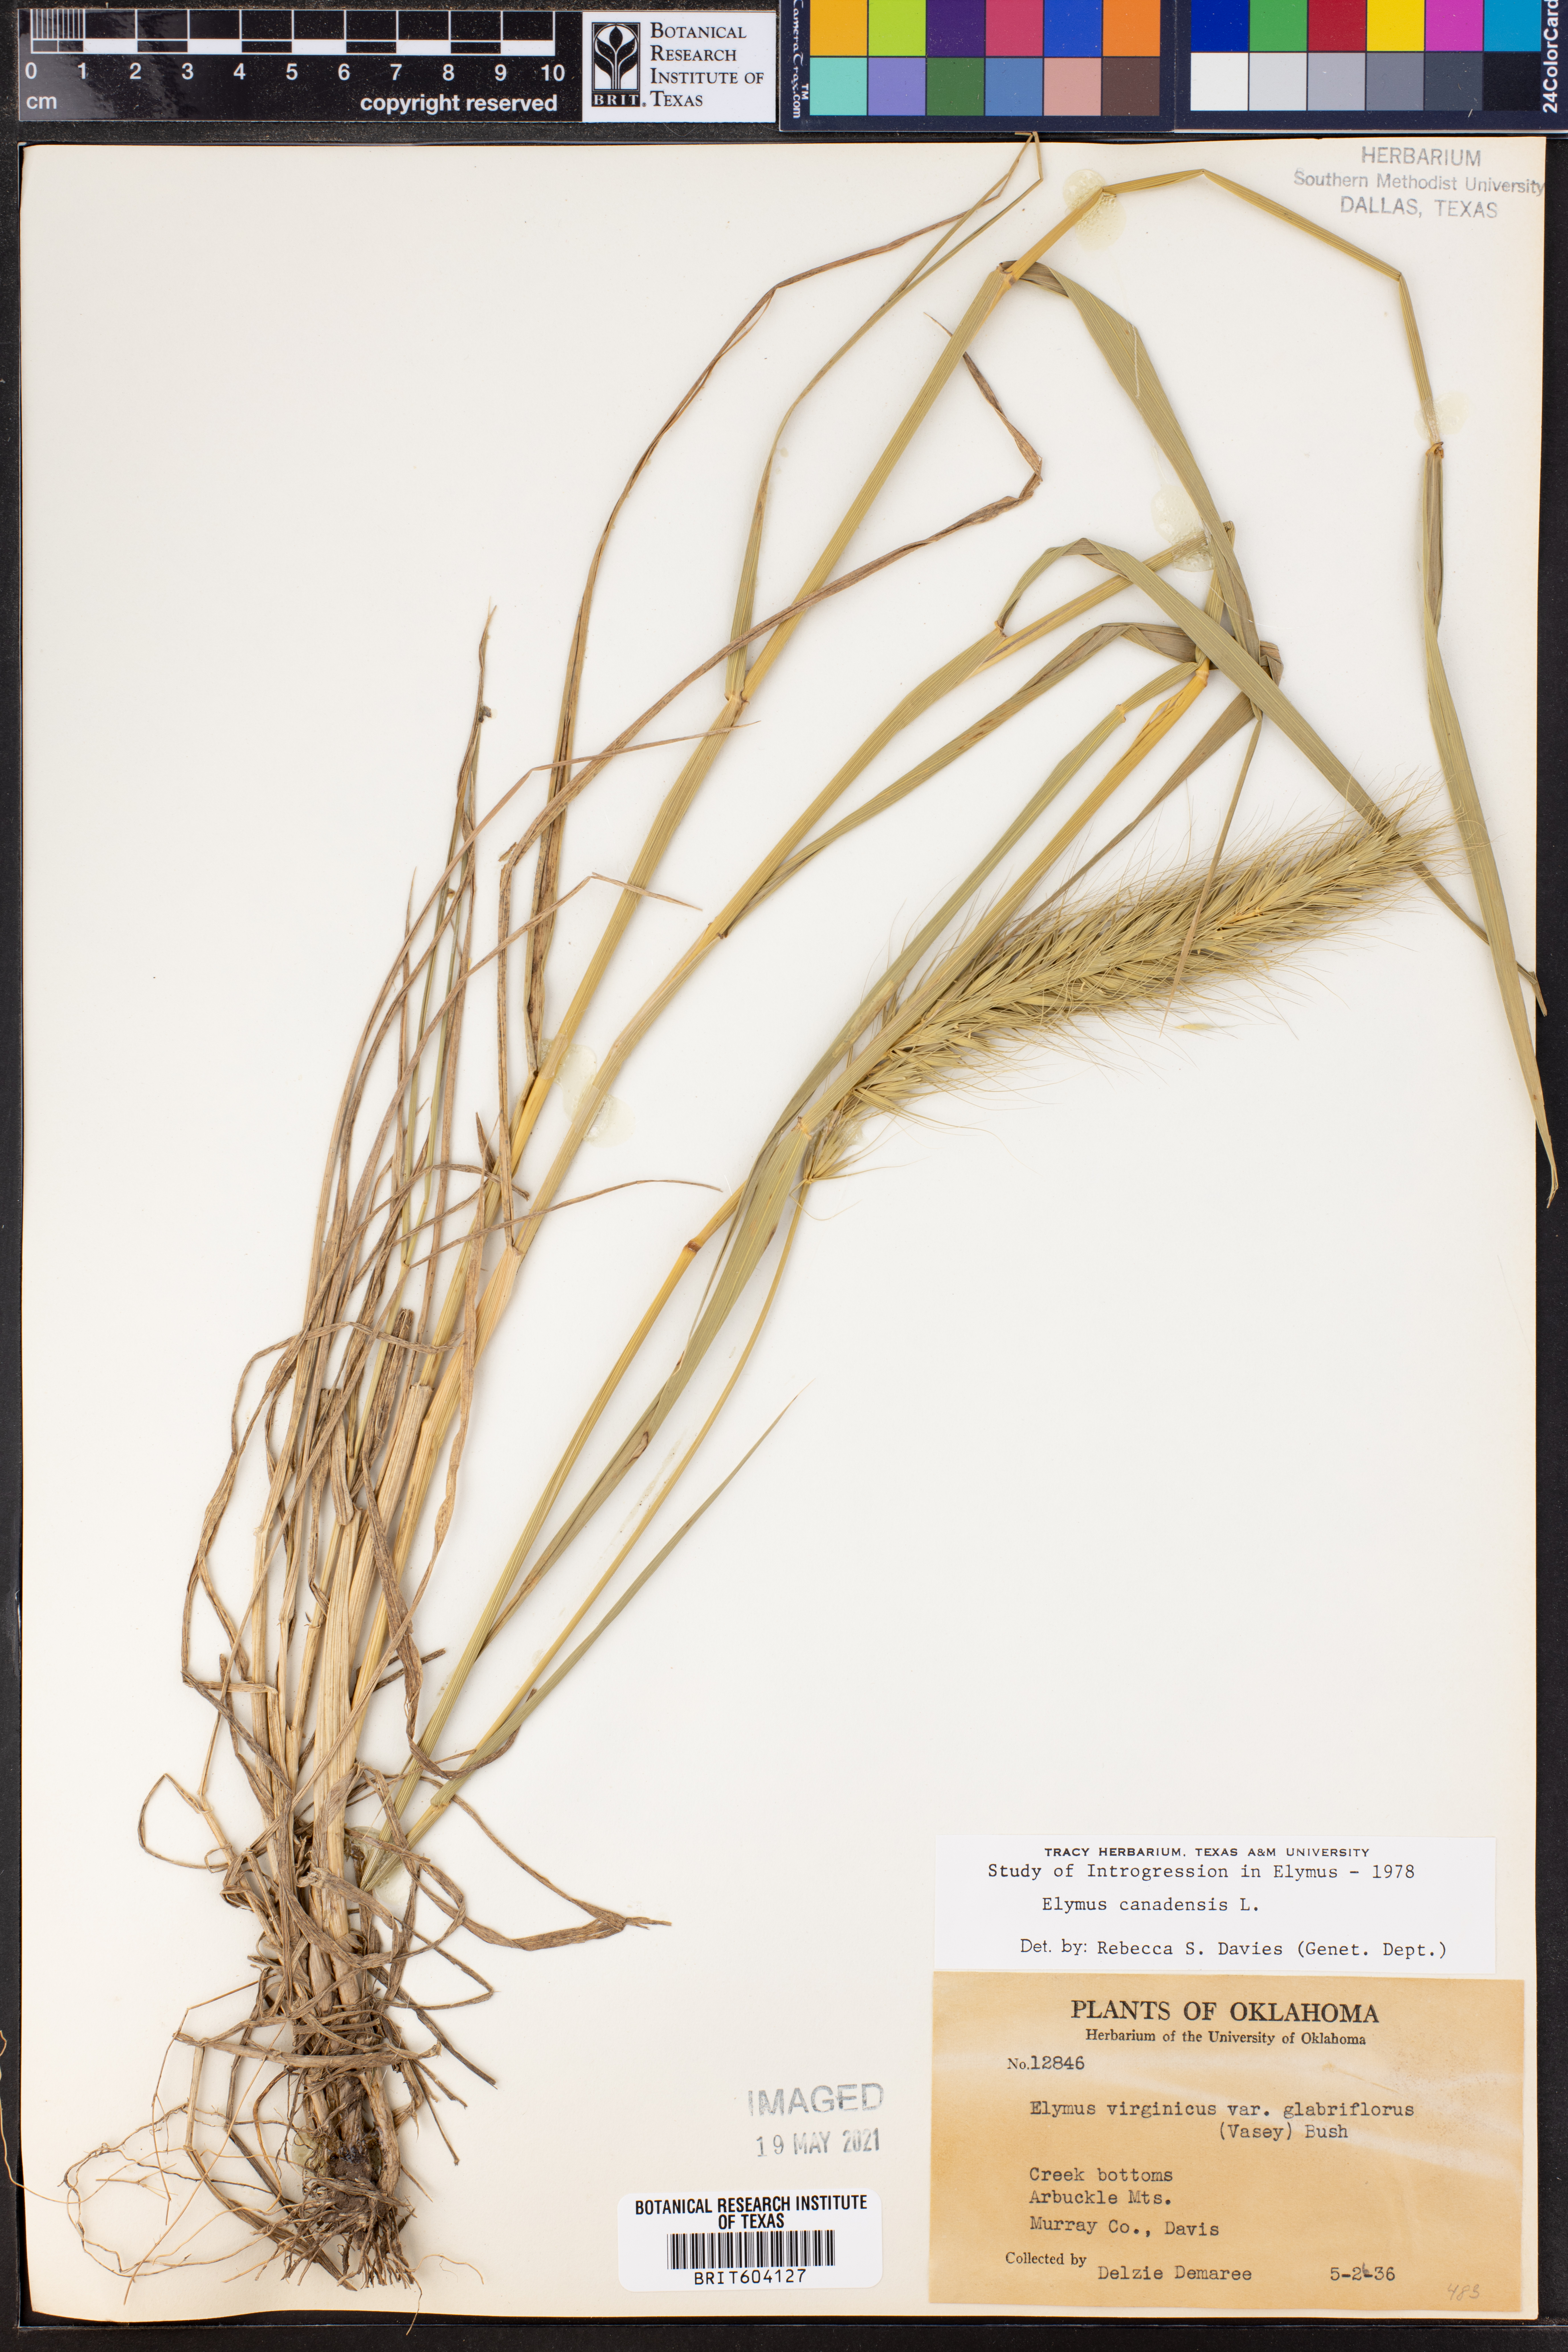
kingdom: Plantae
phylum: Tracheophyta
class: Liliopsida
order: Poales
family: Poaceae
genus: Elymus
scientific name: Elymus canadensis
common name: Canada wild rye
